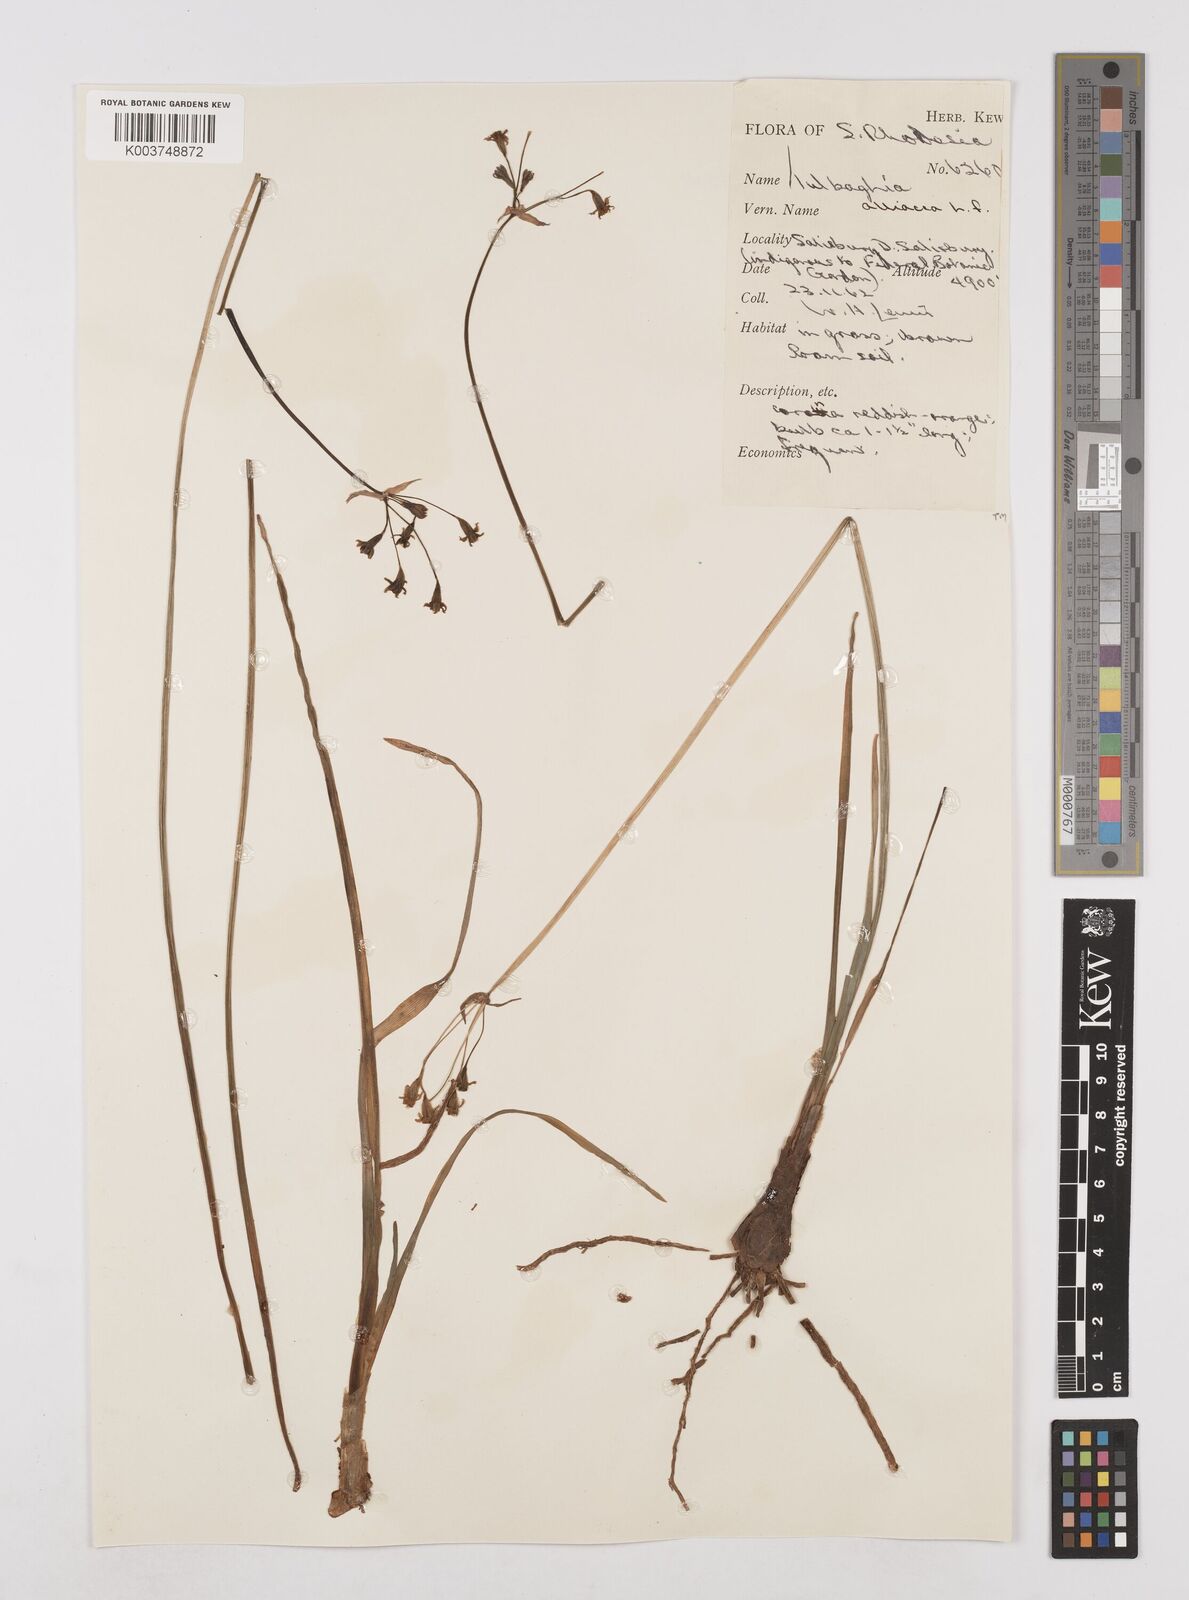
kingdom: Plantae
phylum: Tracheophyta
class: Liliopsida
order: Asparagales
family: Amaryllidaceae
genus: Tulbaghia
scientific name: Tulbaghia alliacea
